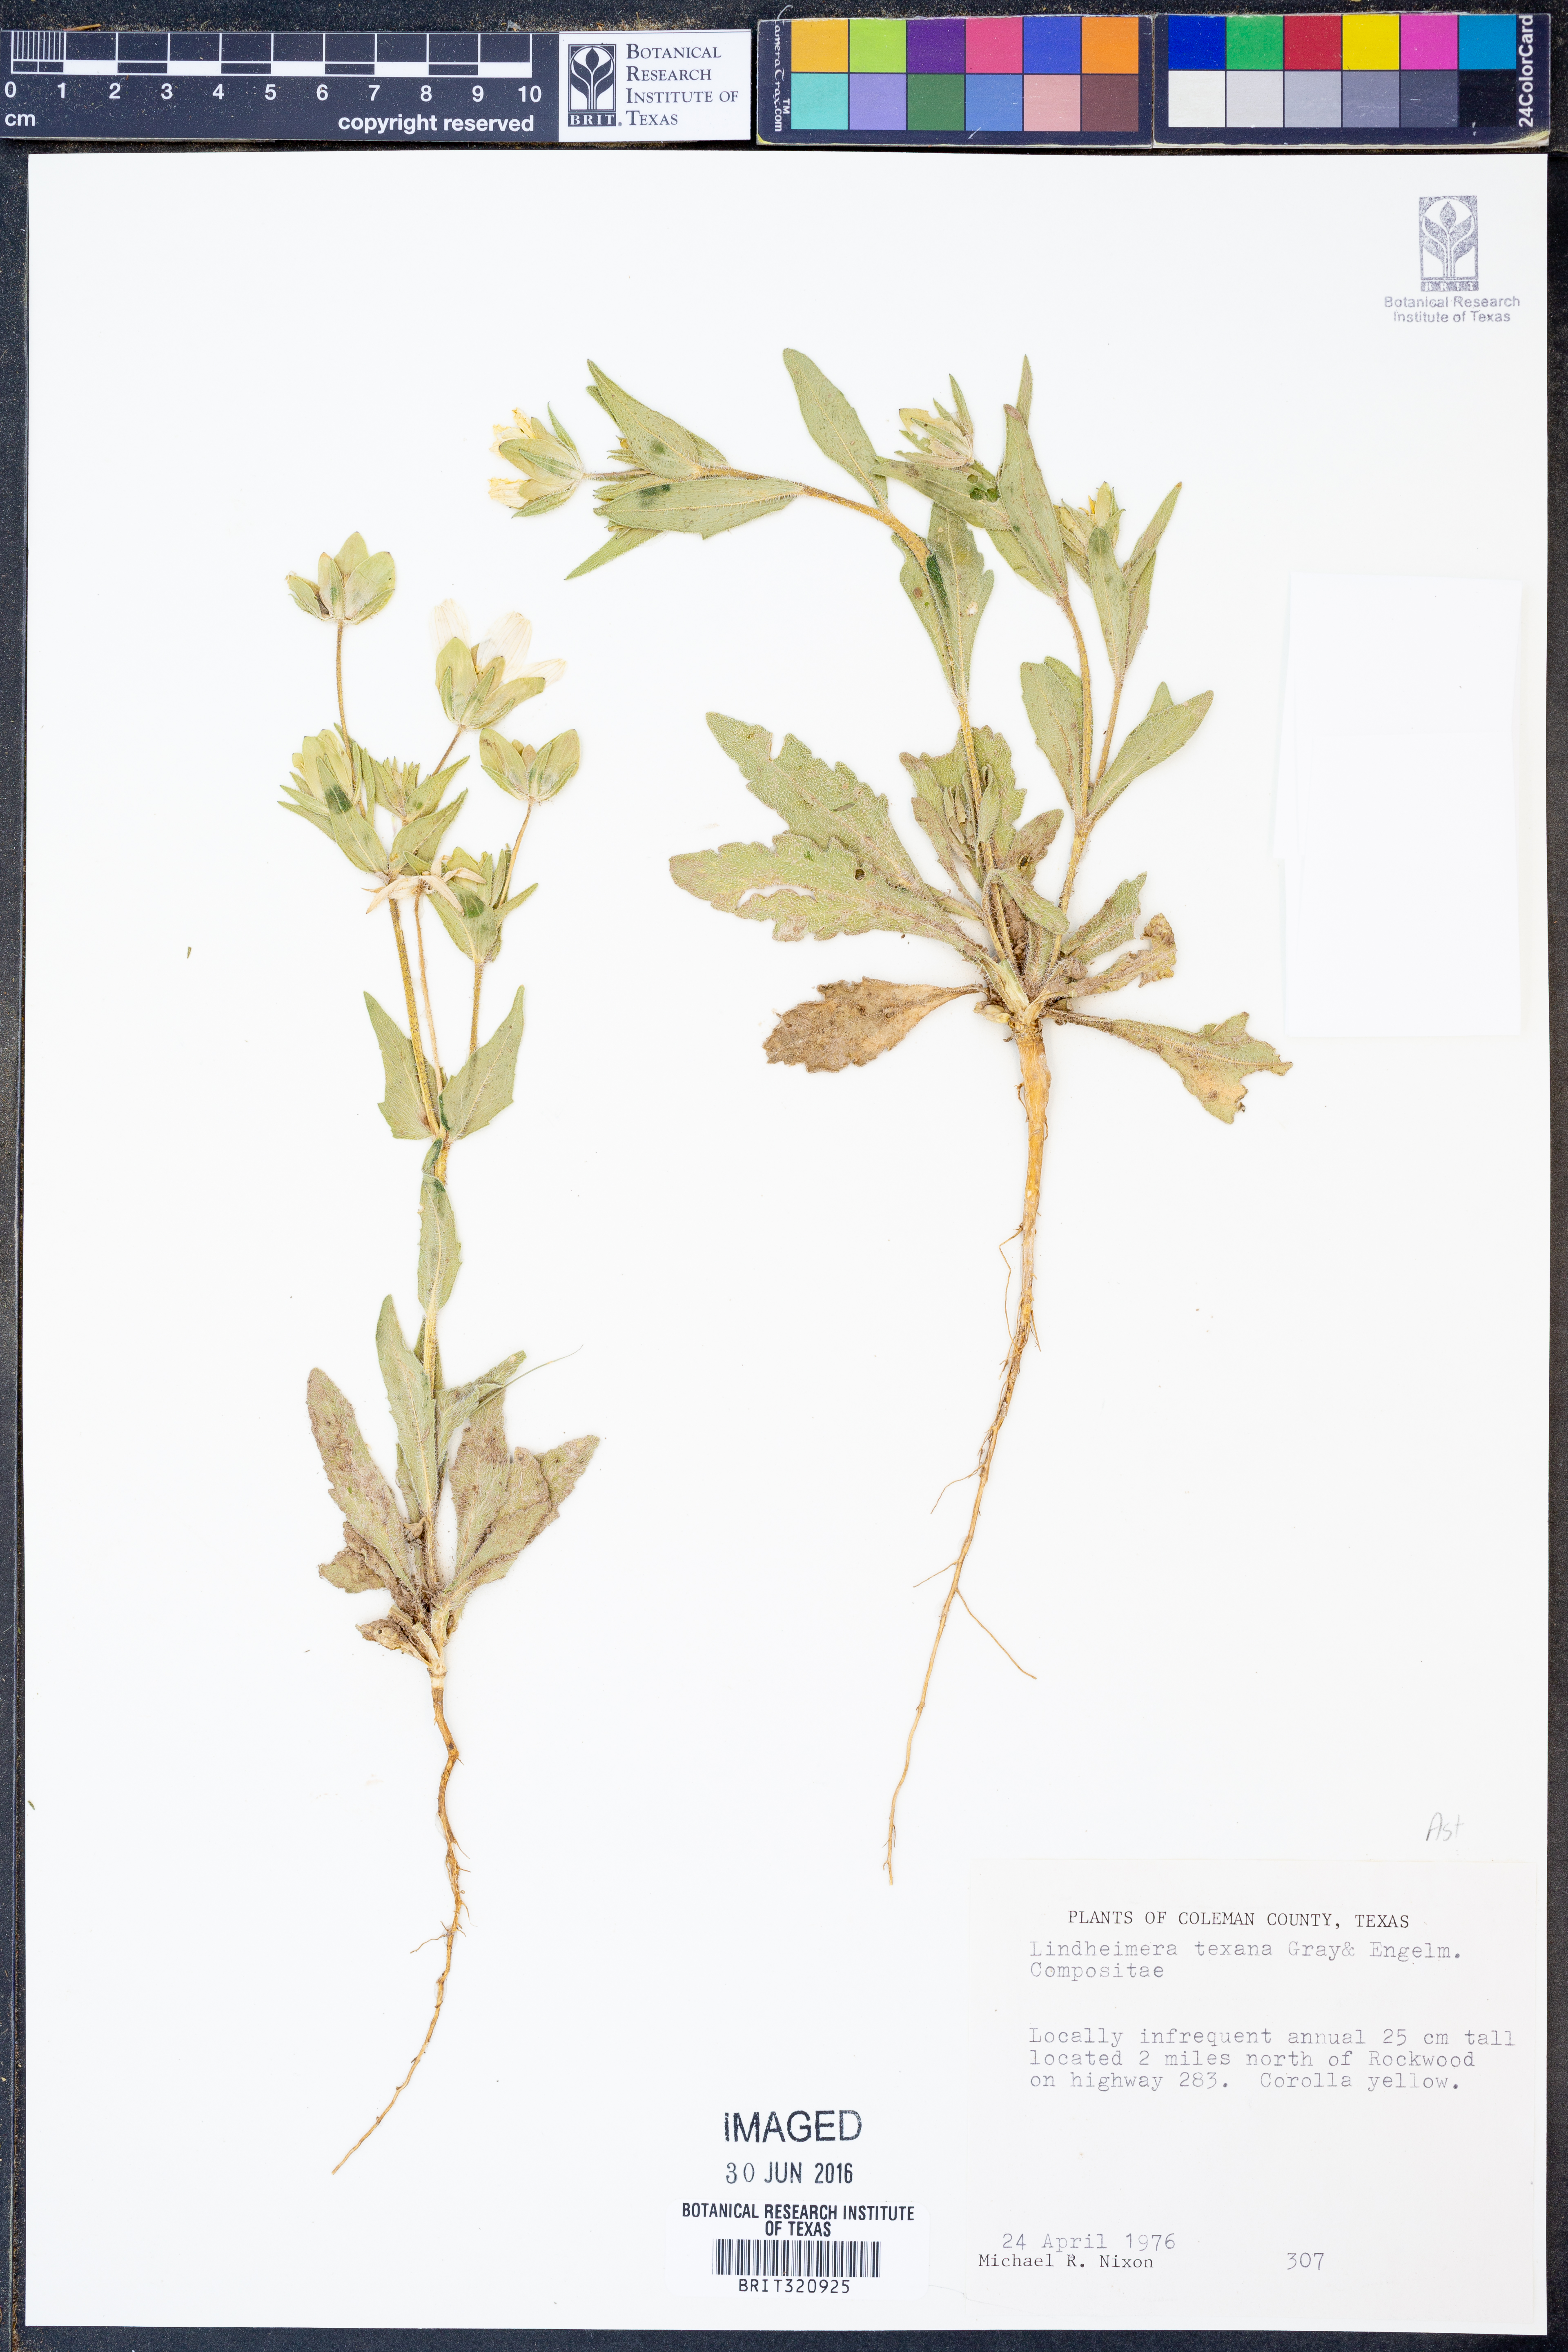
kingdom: Plantae
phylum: Tracheophyta
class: Magnoliopsida
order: Asterales
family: Asteraceae
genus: Lindheimera
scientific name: Lindheimera texana
